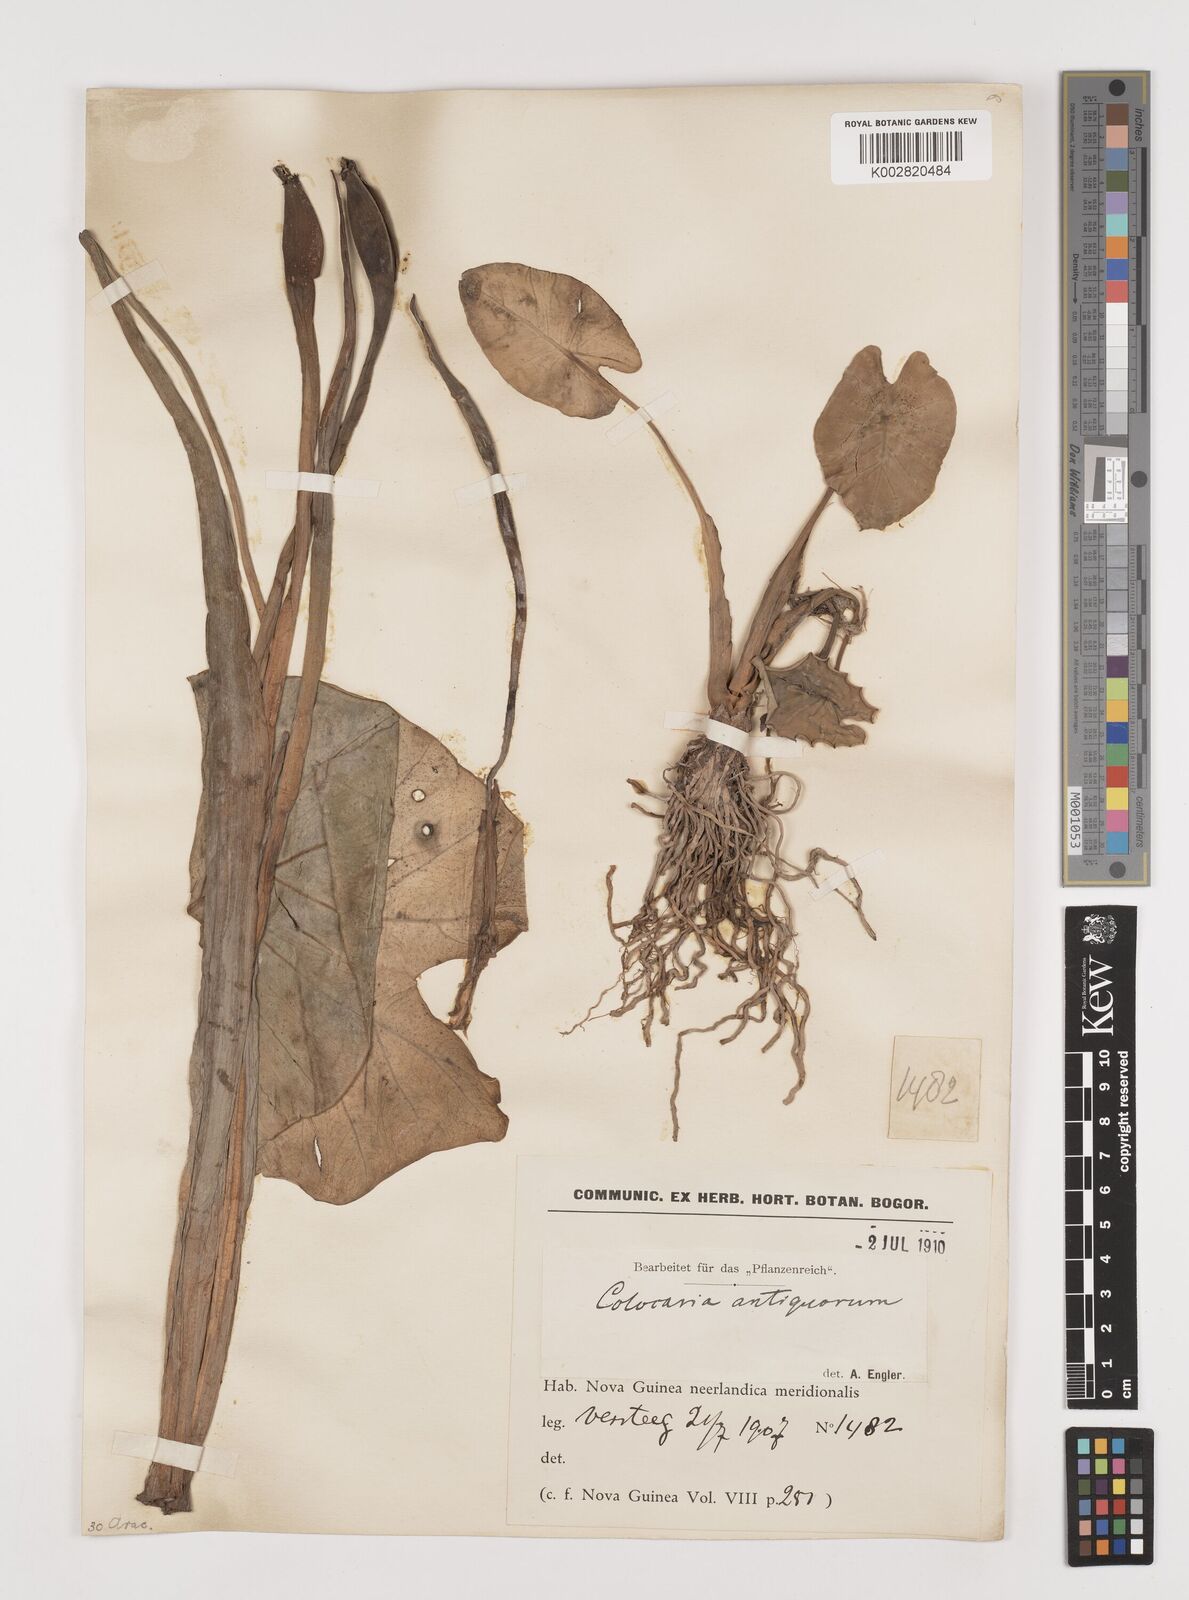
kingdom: Plantae
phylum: Tracheophyta
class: Liliopsida
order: Alismatales
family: Araceae
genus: Colocasia
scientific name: Colocasia esculenta
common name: Taro
